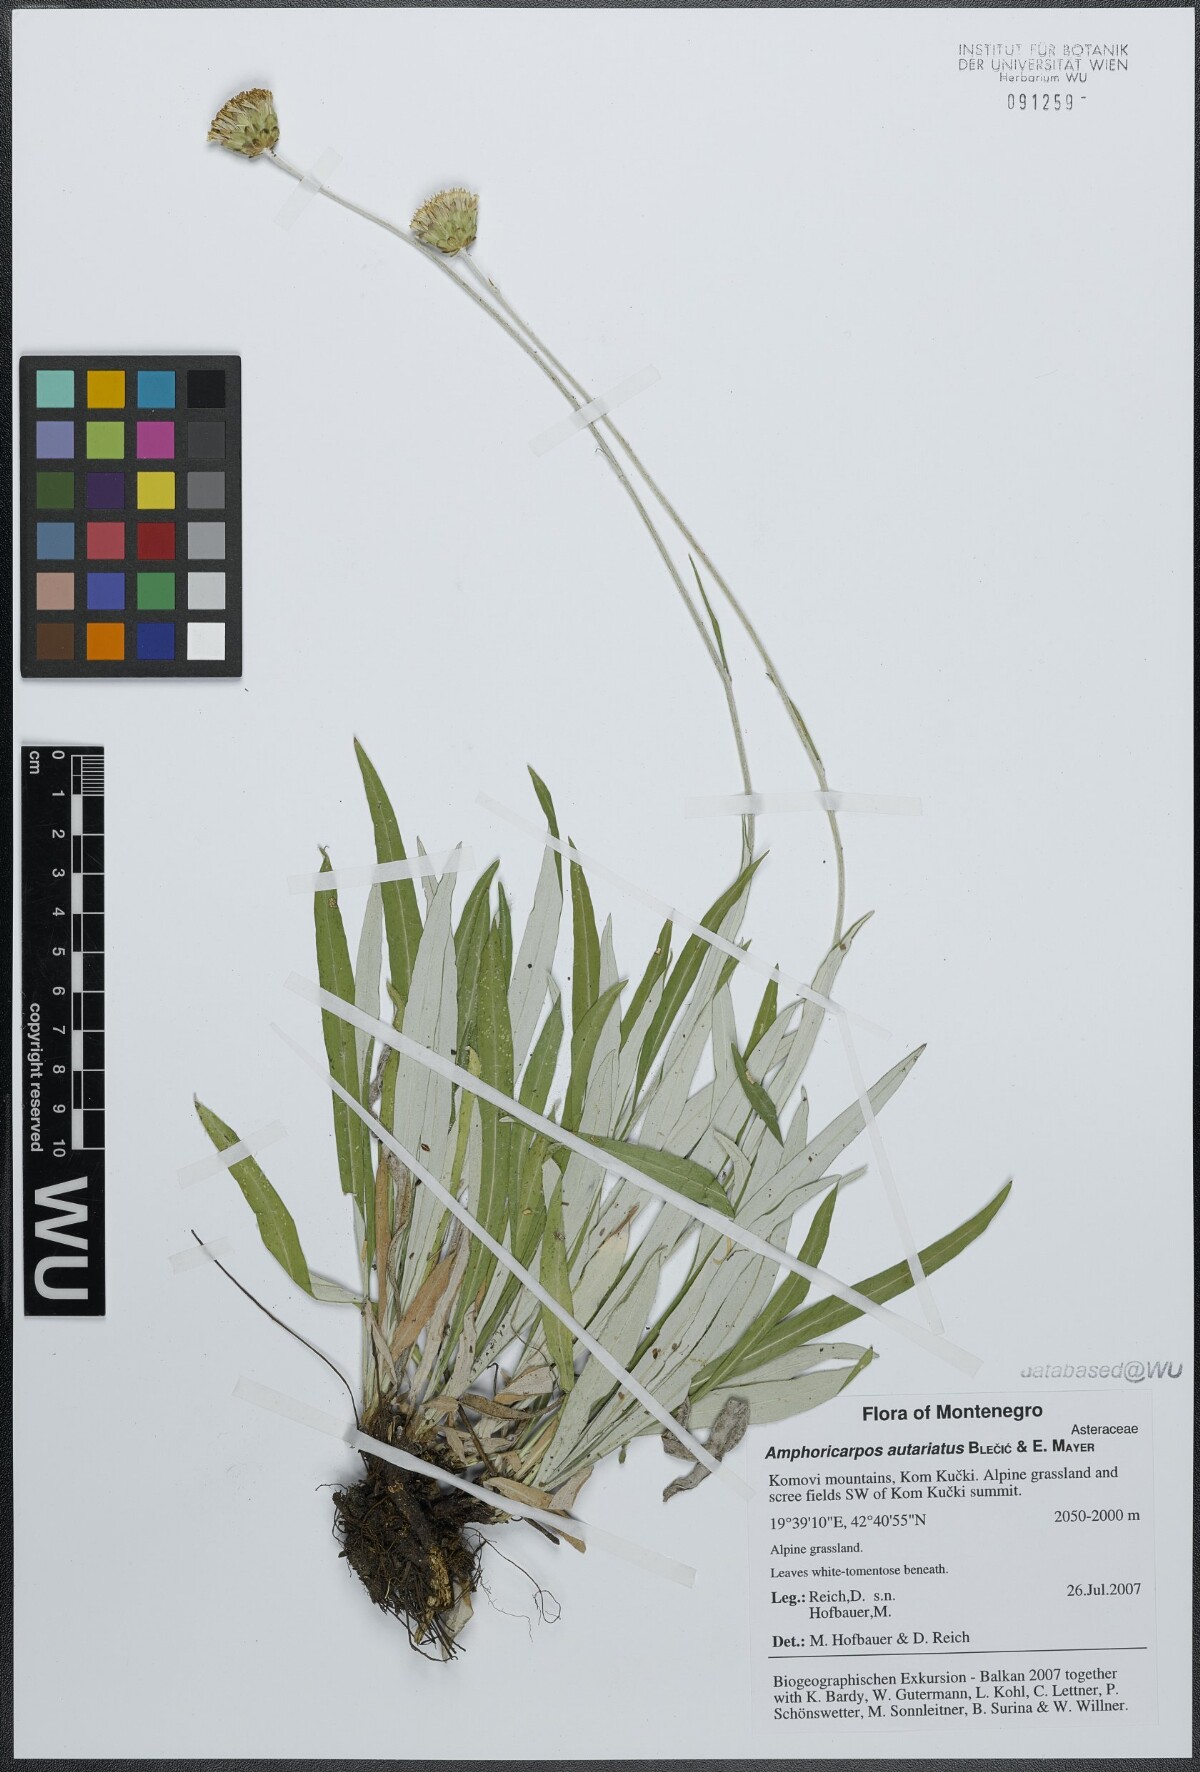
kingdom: Plantae
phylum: Tracheophyta
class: Magnoliopsida
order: Asterales
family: Asteraceae
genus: Amphoricarpos
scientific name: Amphoricarpos autariatus
